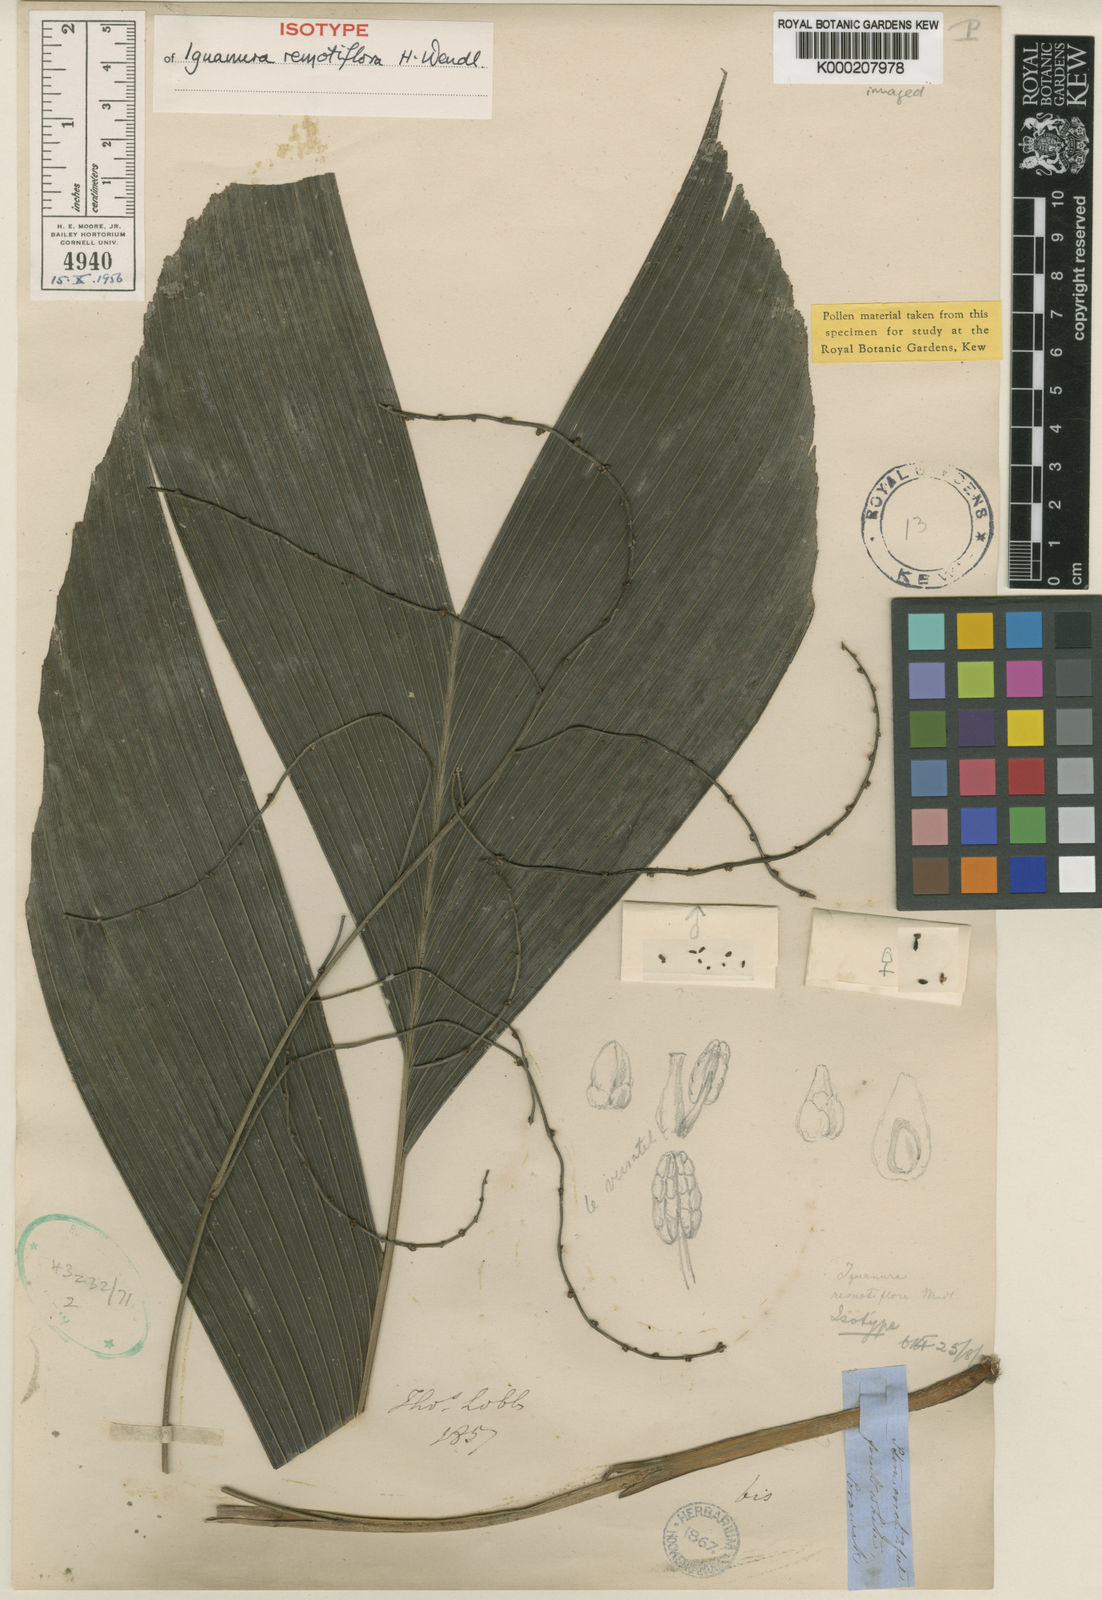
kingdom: Plantae
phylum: Tracheophyta
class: Liliopsida
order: Arecales
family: Arecaceae
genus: Iguanura
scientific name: Iguanura remotiflora
